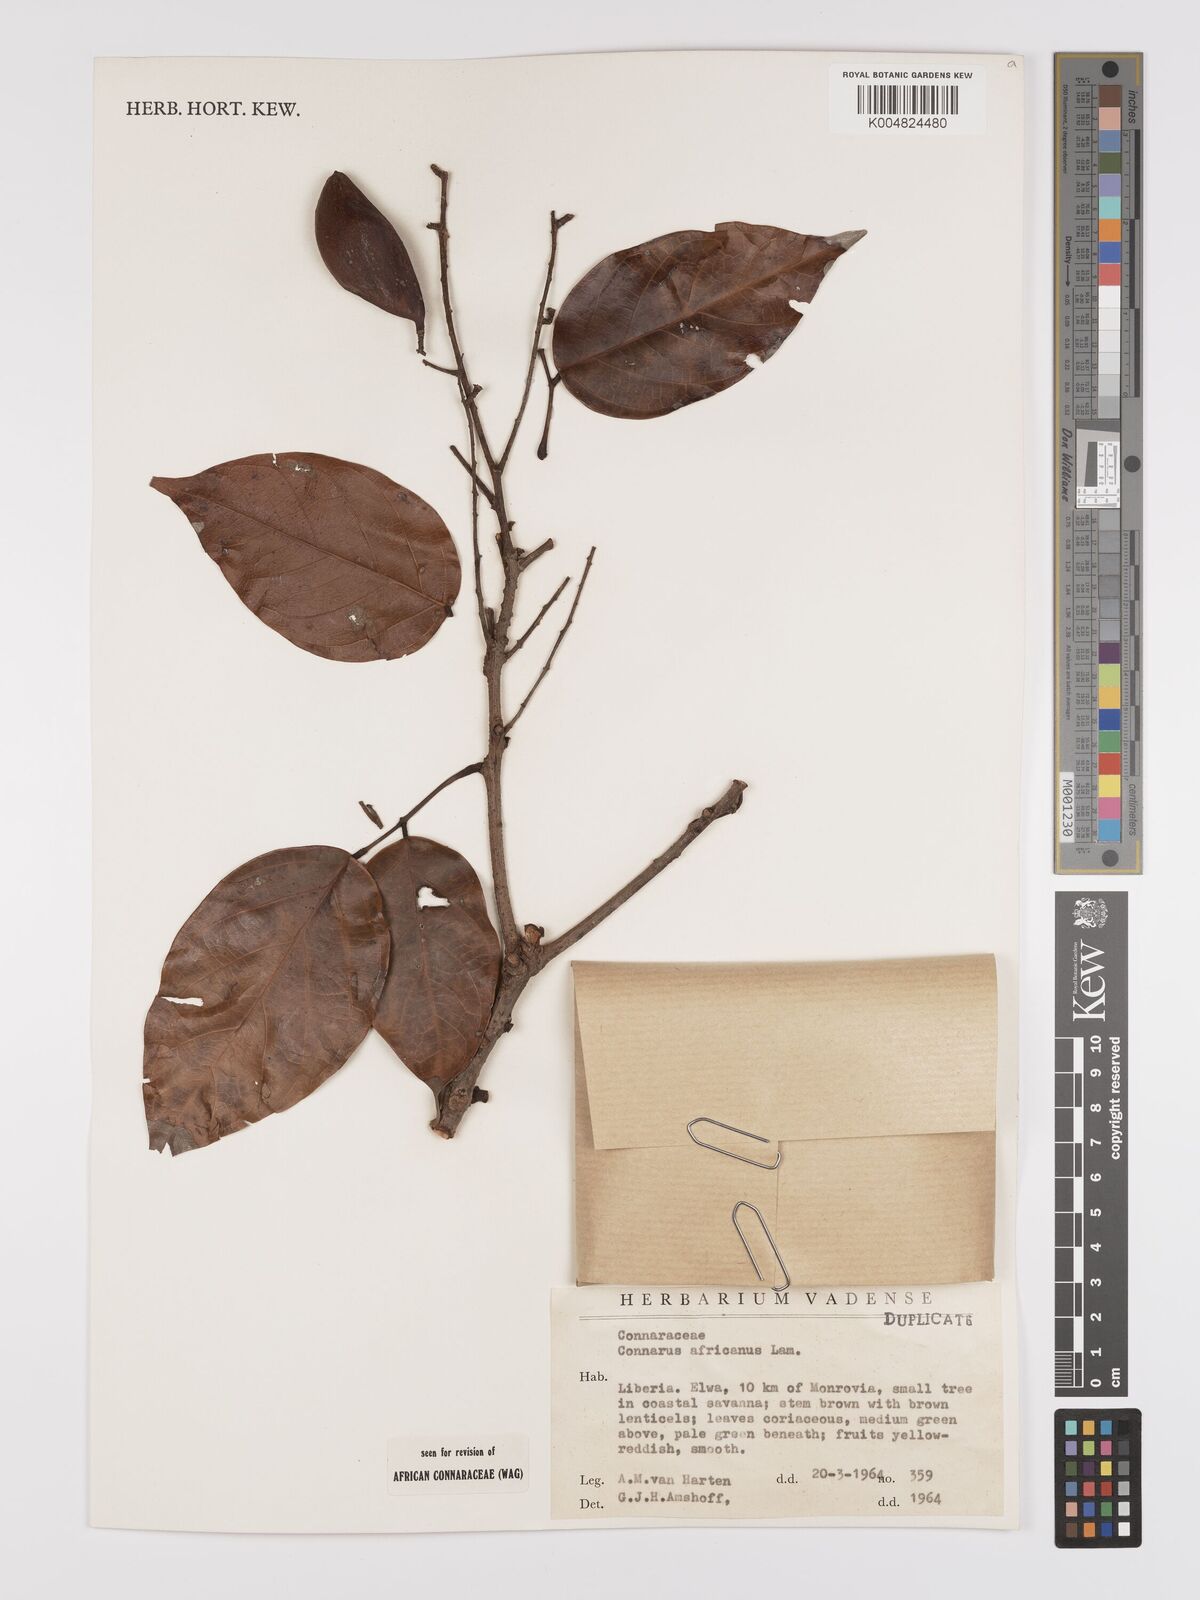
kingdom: Plantae
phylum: Tracheophyta
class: Magnoliopsida
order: Oxalidales
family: Connaraceae
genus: Connarus
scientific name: Connarus africanus
